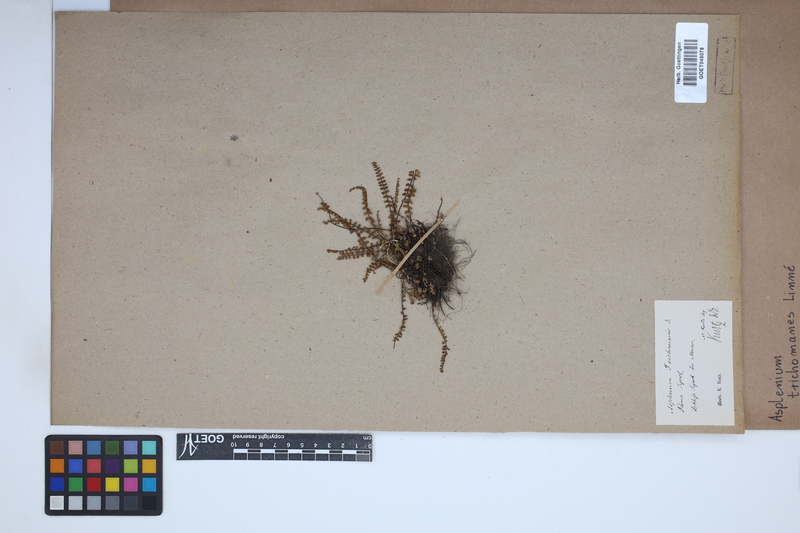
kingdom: Plantae
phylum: Tracheophyta
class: Polypodiopsida
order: Polypodiales
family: Aspleniaceae
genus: Asplenium
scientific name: Asplenium trichomanes
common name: Maidenhair spleenwort
